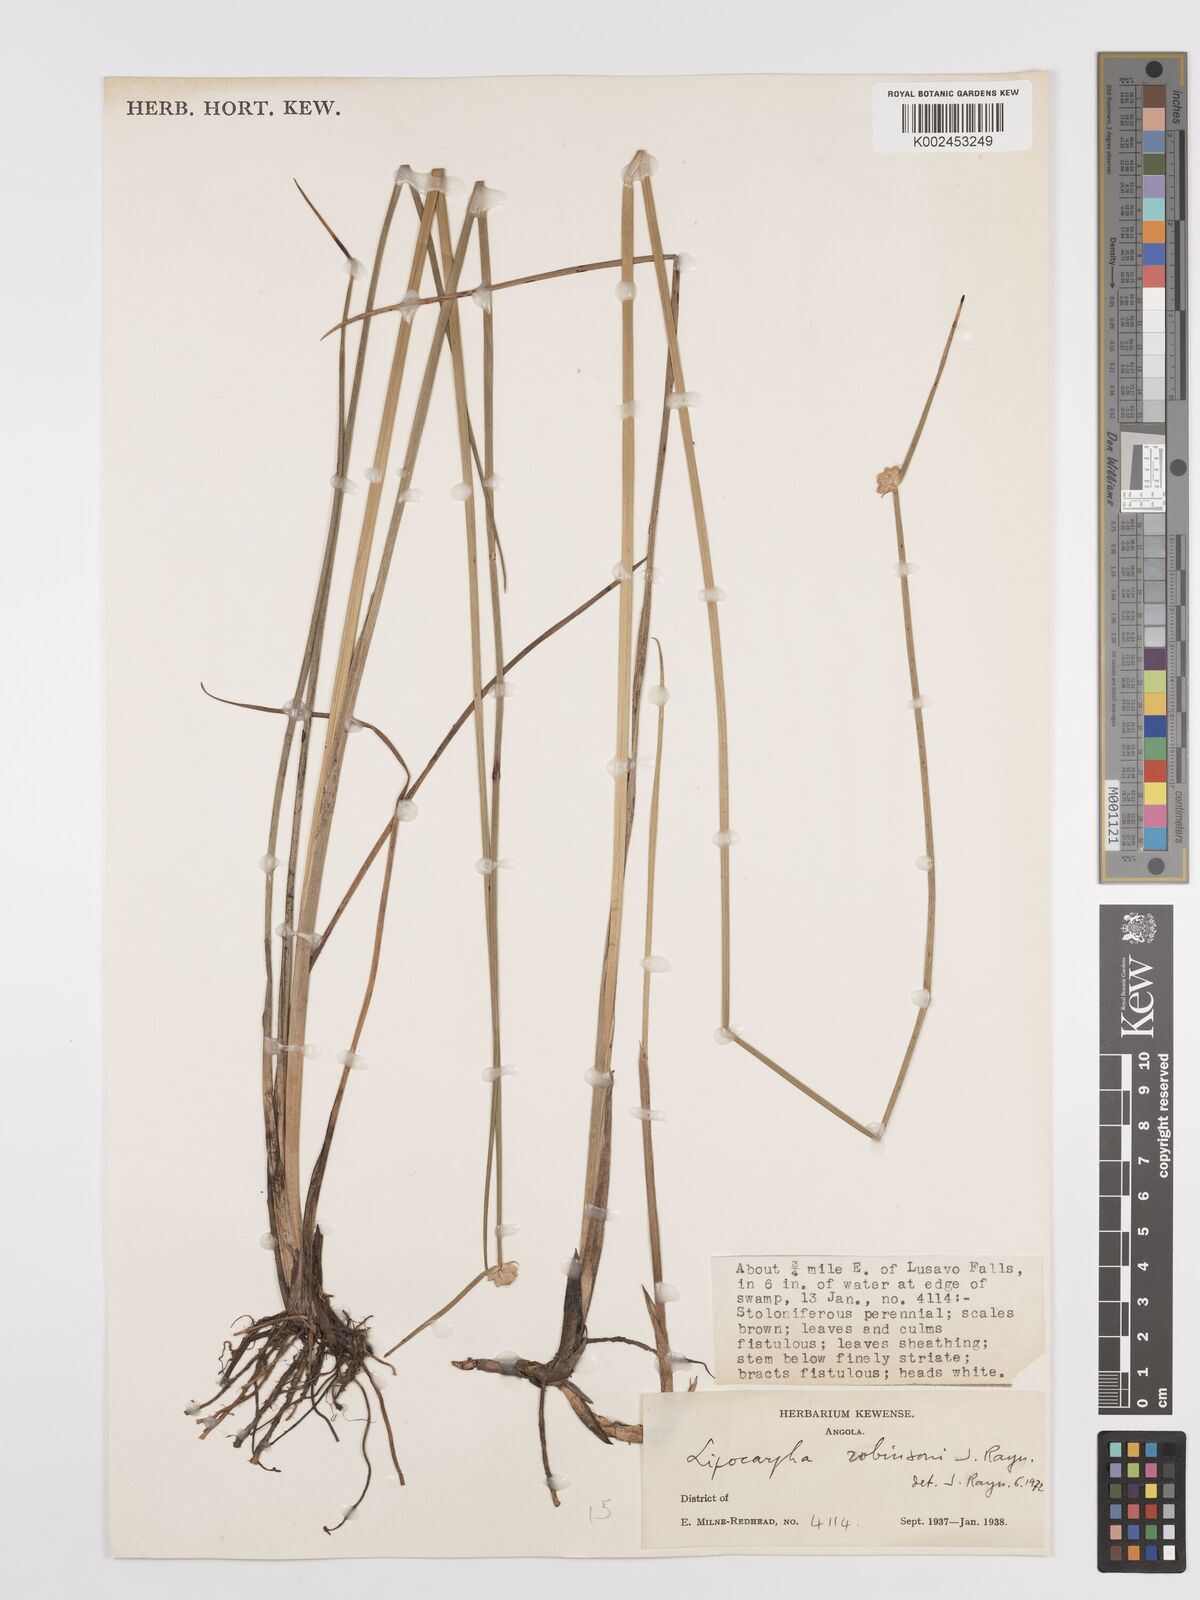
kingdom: Plantae
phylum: Tracheophyta
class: Liliopsida
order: Poales
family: Cyperaceae
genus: Cyperus
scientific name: Cyperus tenuiculmis
